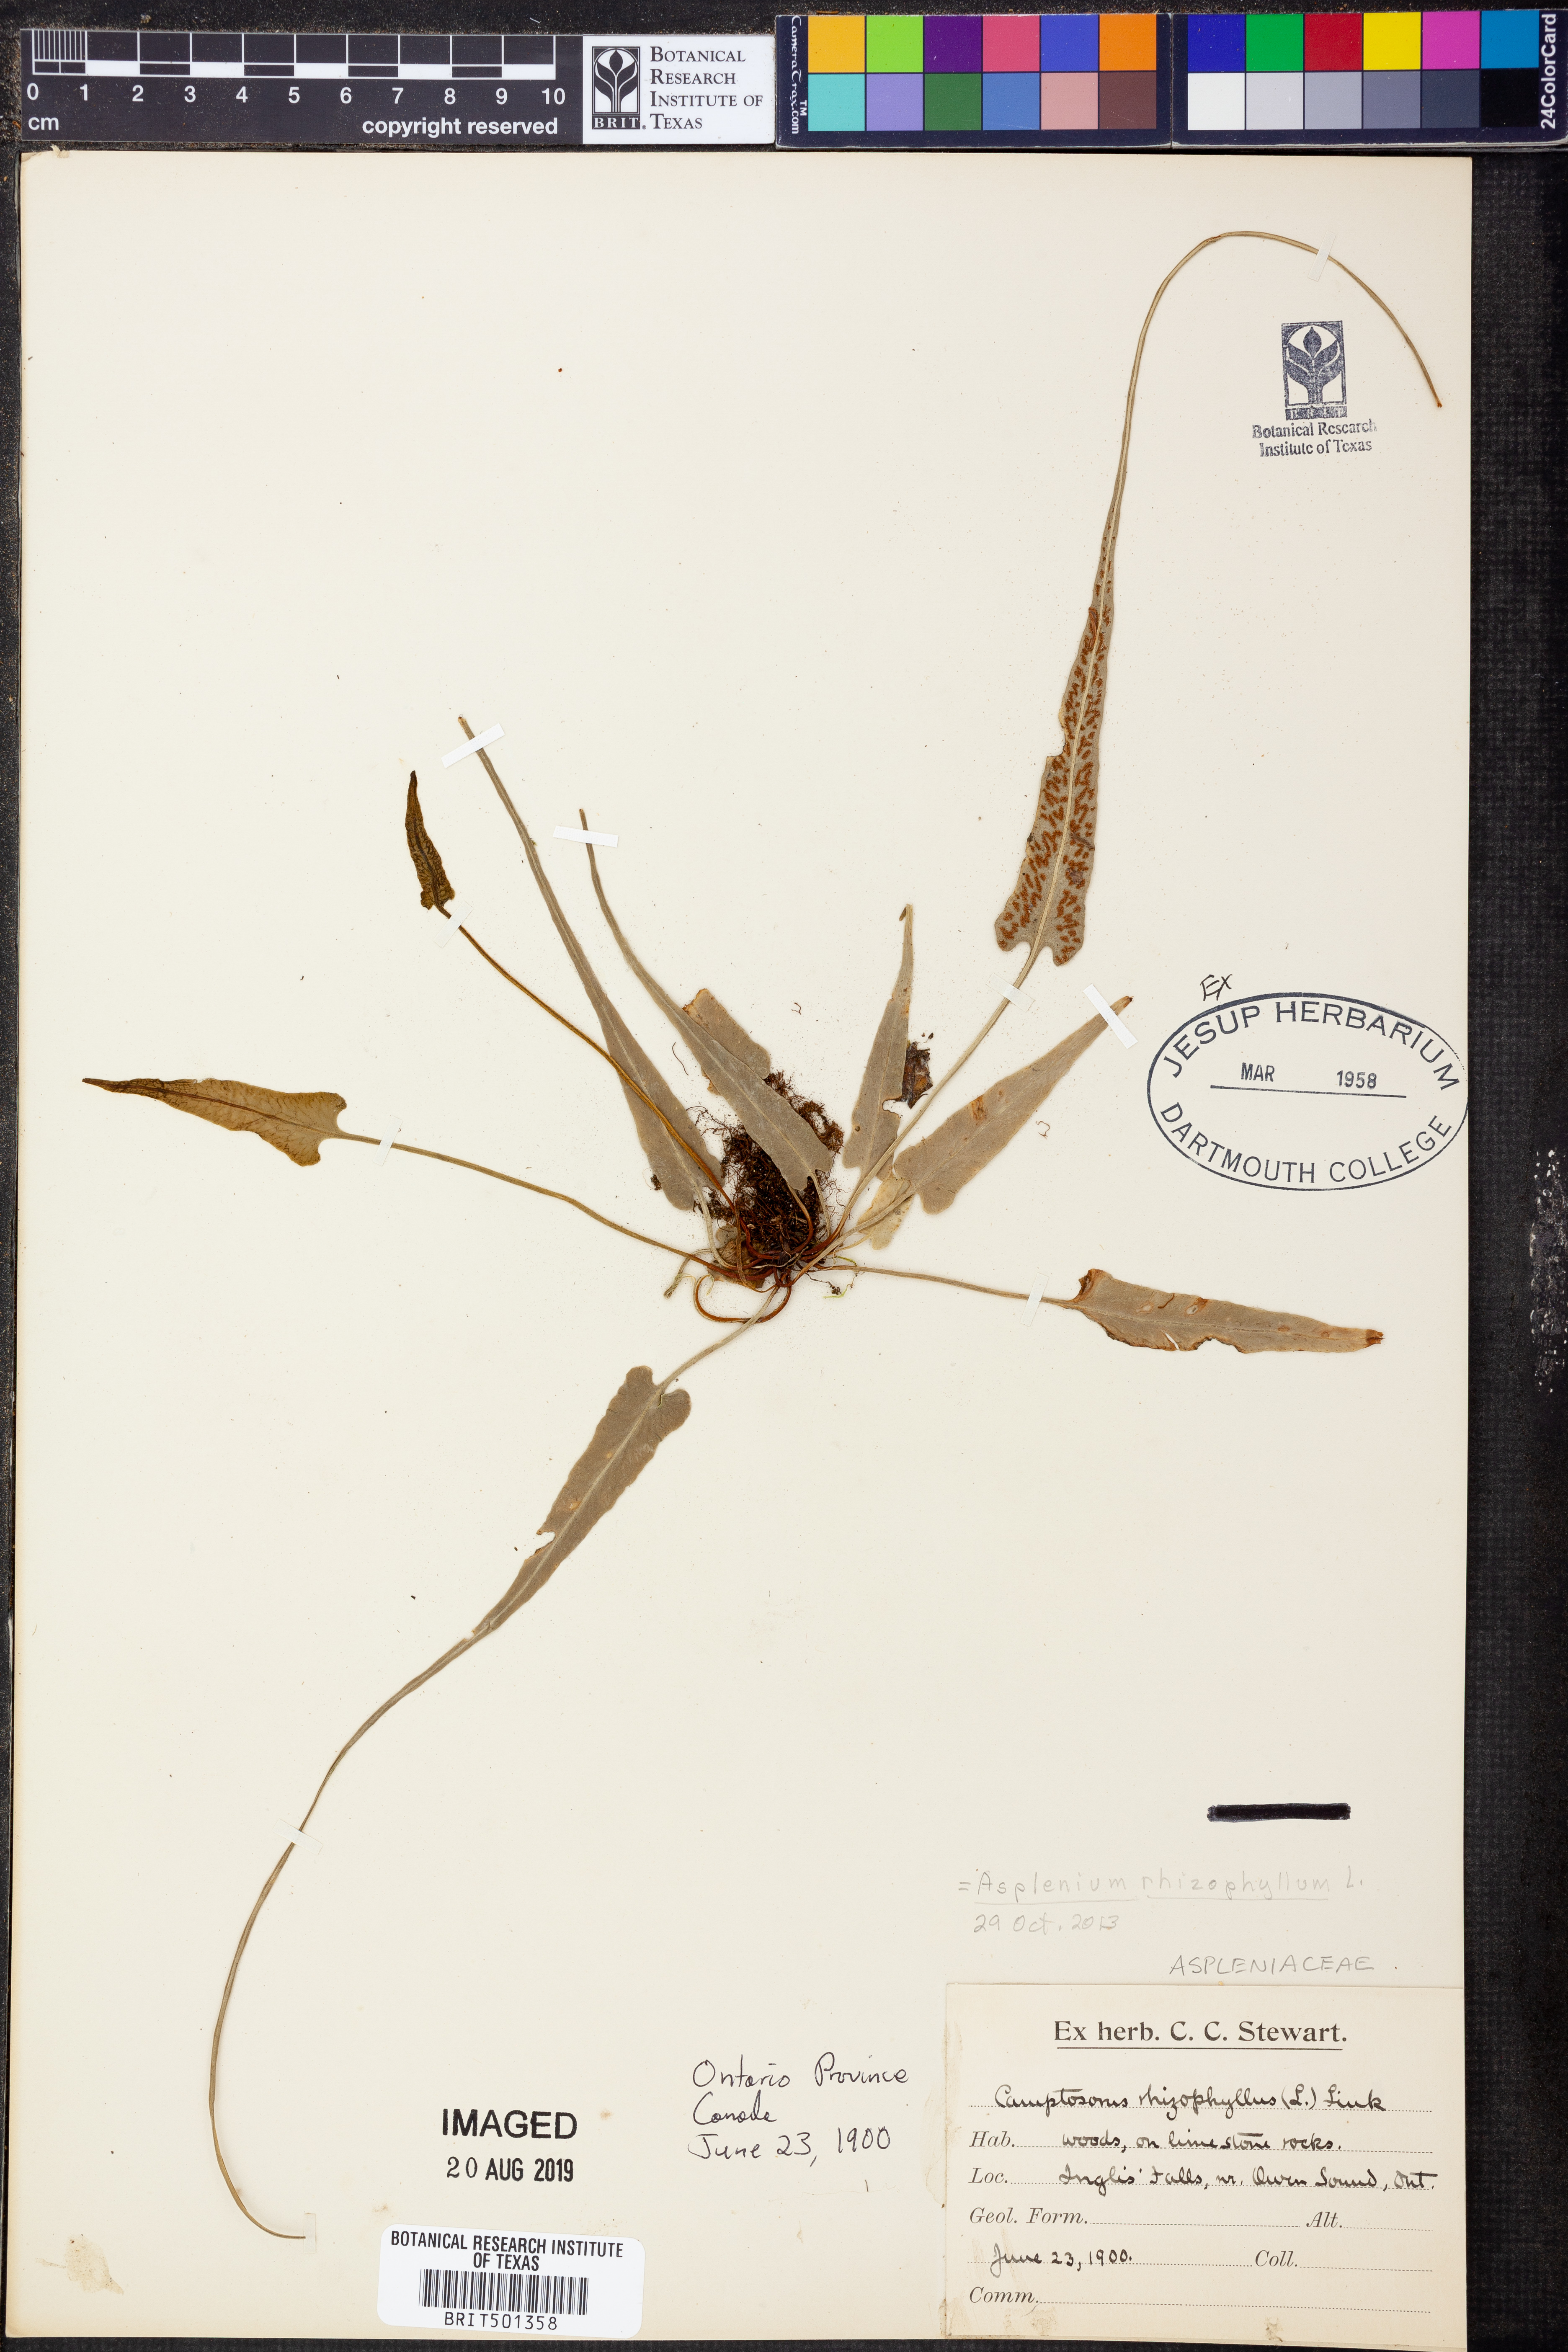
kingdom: Plantae
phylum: Tracheophyta
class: Polypodiopsida
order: Polypodiales
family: Aspleniaceae
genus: Asplenium
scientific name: Asplenium rhizophyllum
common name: Walking fern
